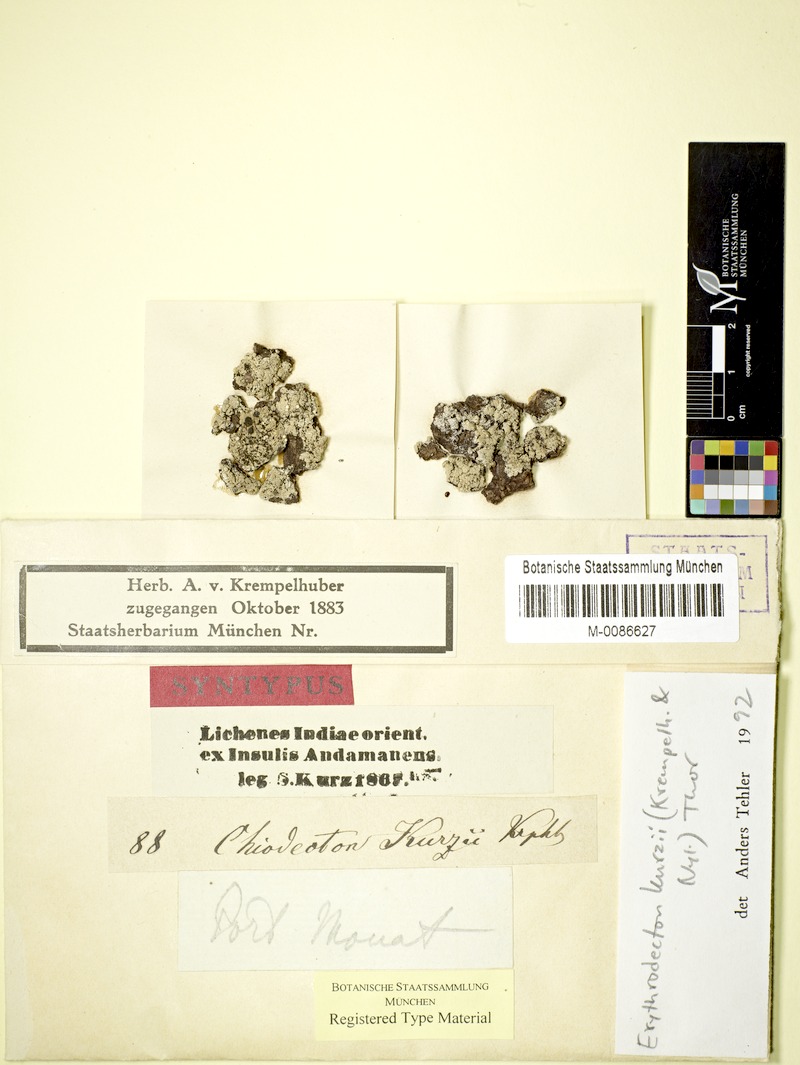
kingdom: Fungi
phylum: Ascomycota
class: Arthoniomycetes
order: Arthoniales
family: Roccellaceae
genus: Pulvinodecton
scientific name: Pulvinodecton kurzii
